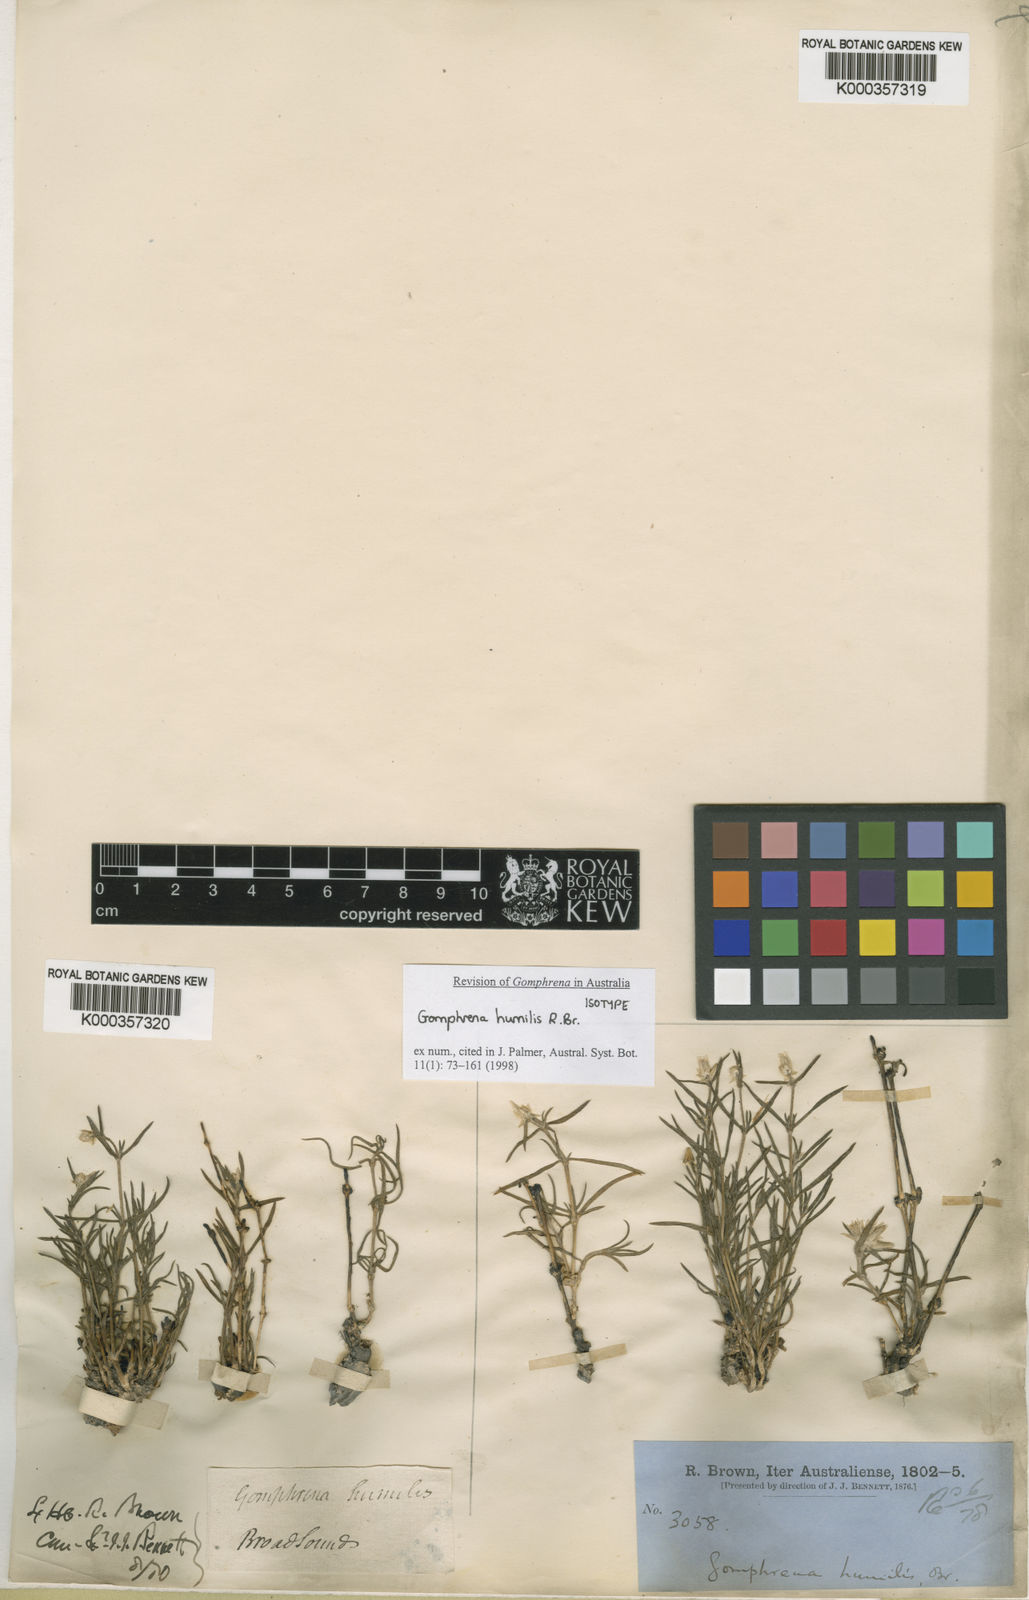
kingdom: Plantae
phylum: Tracheophyta
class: Magnoliopsida
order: Caryophyllales
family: Amaranthaceae
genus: Gomphrena
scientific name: Gomphrena humilis
